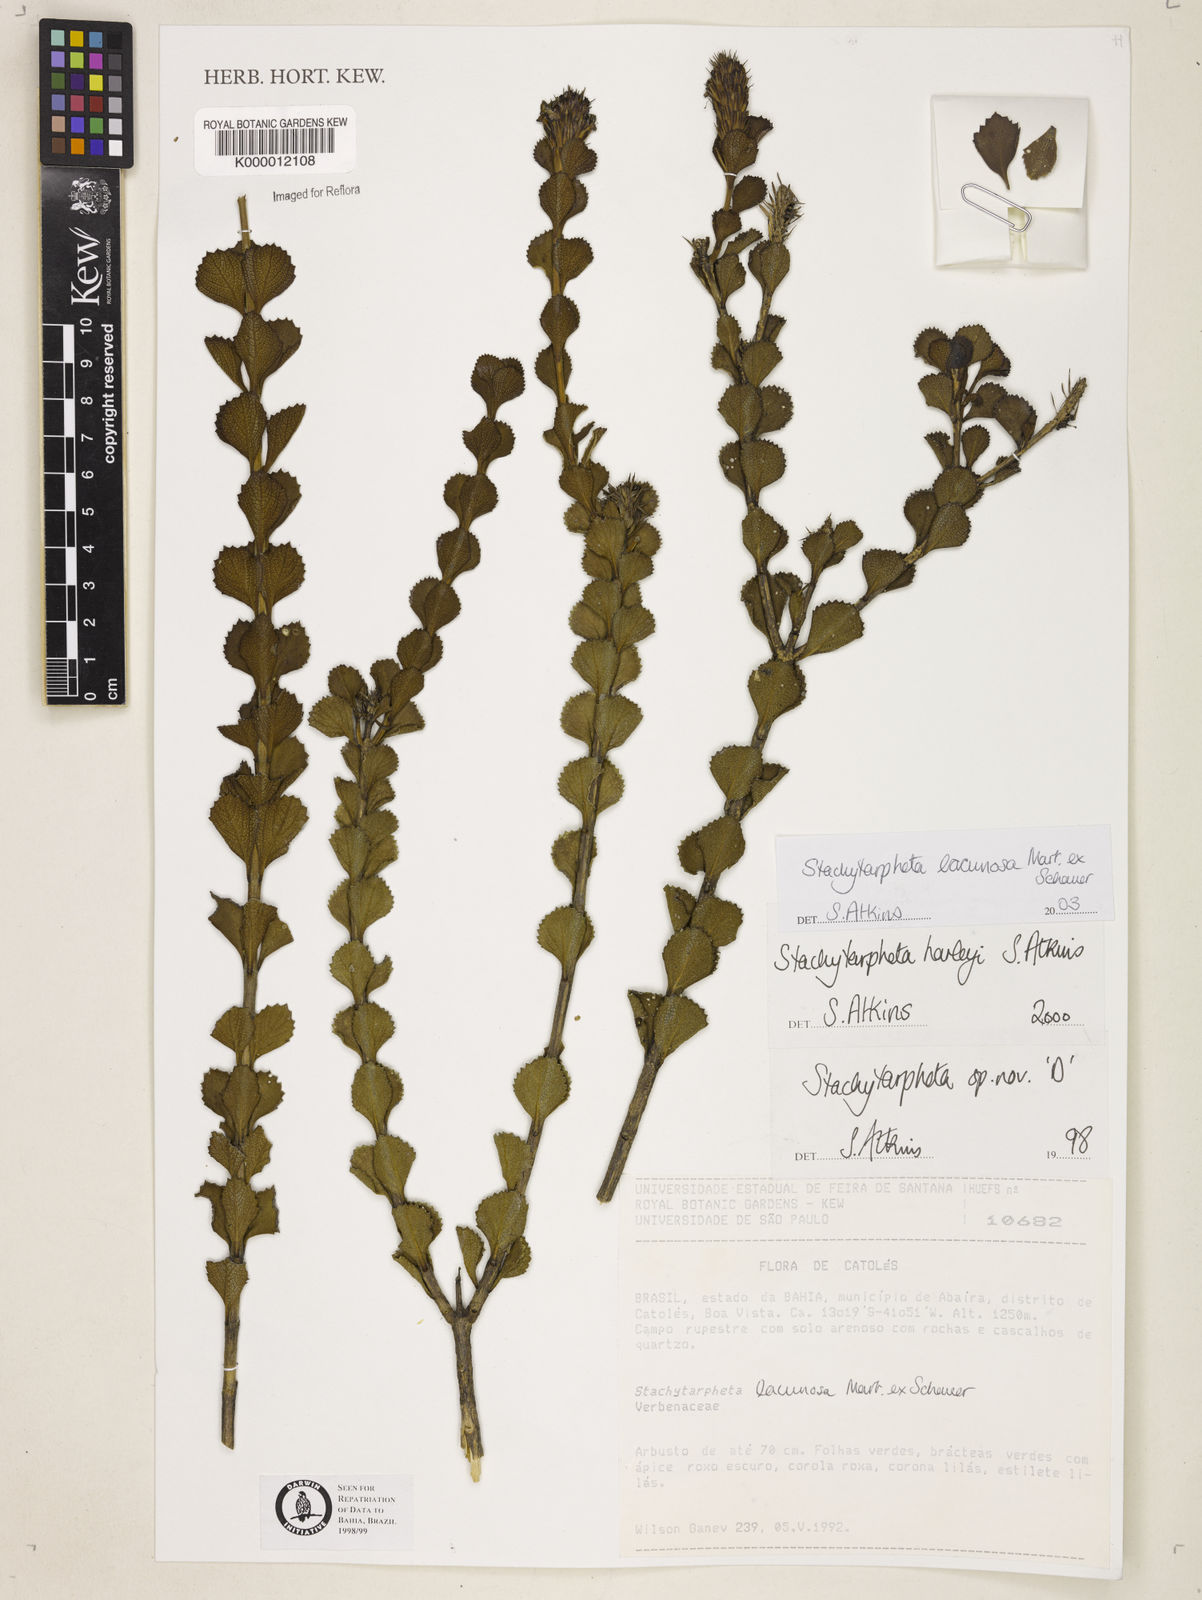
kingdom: Plantae
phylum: Tracheophyta
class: Magnoliopsida
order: Lamiales
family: Verbenaceae
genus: Stachytarpheta
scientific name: Stachytarpheta harleyi
